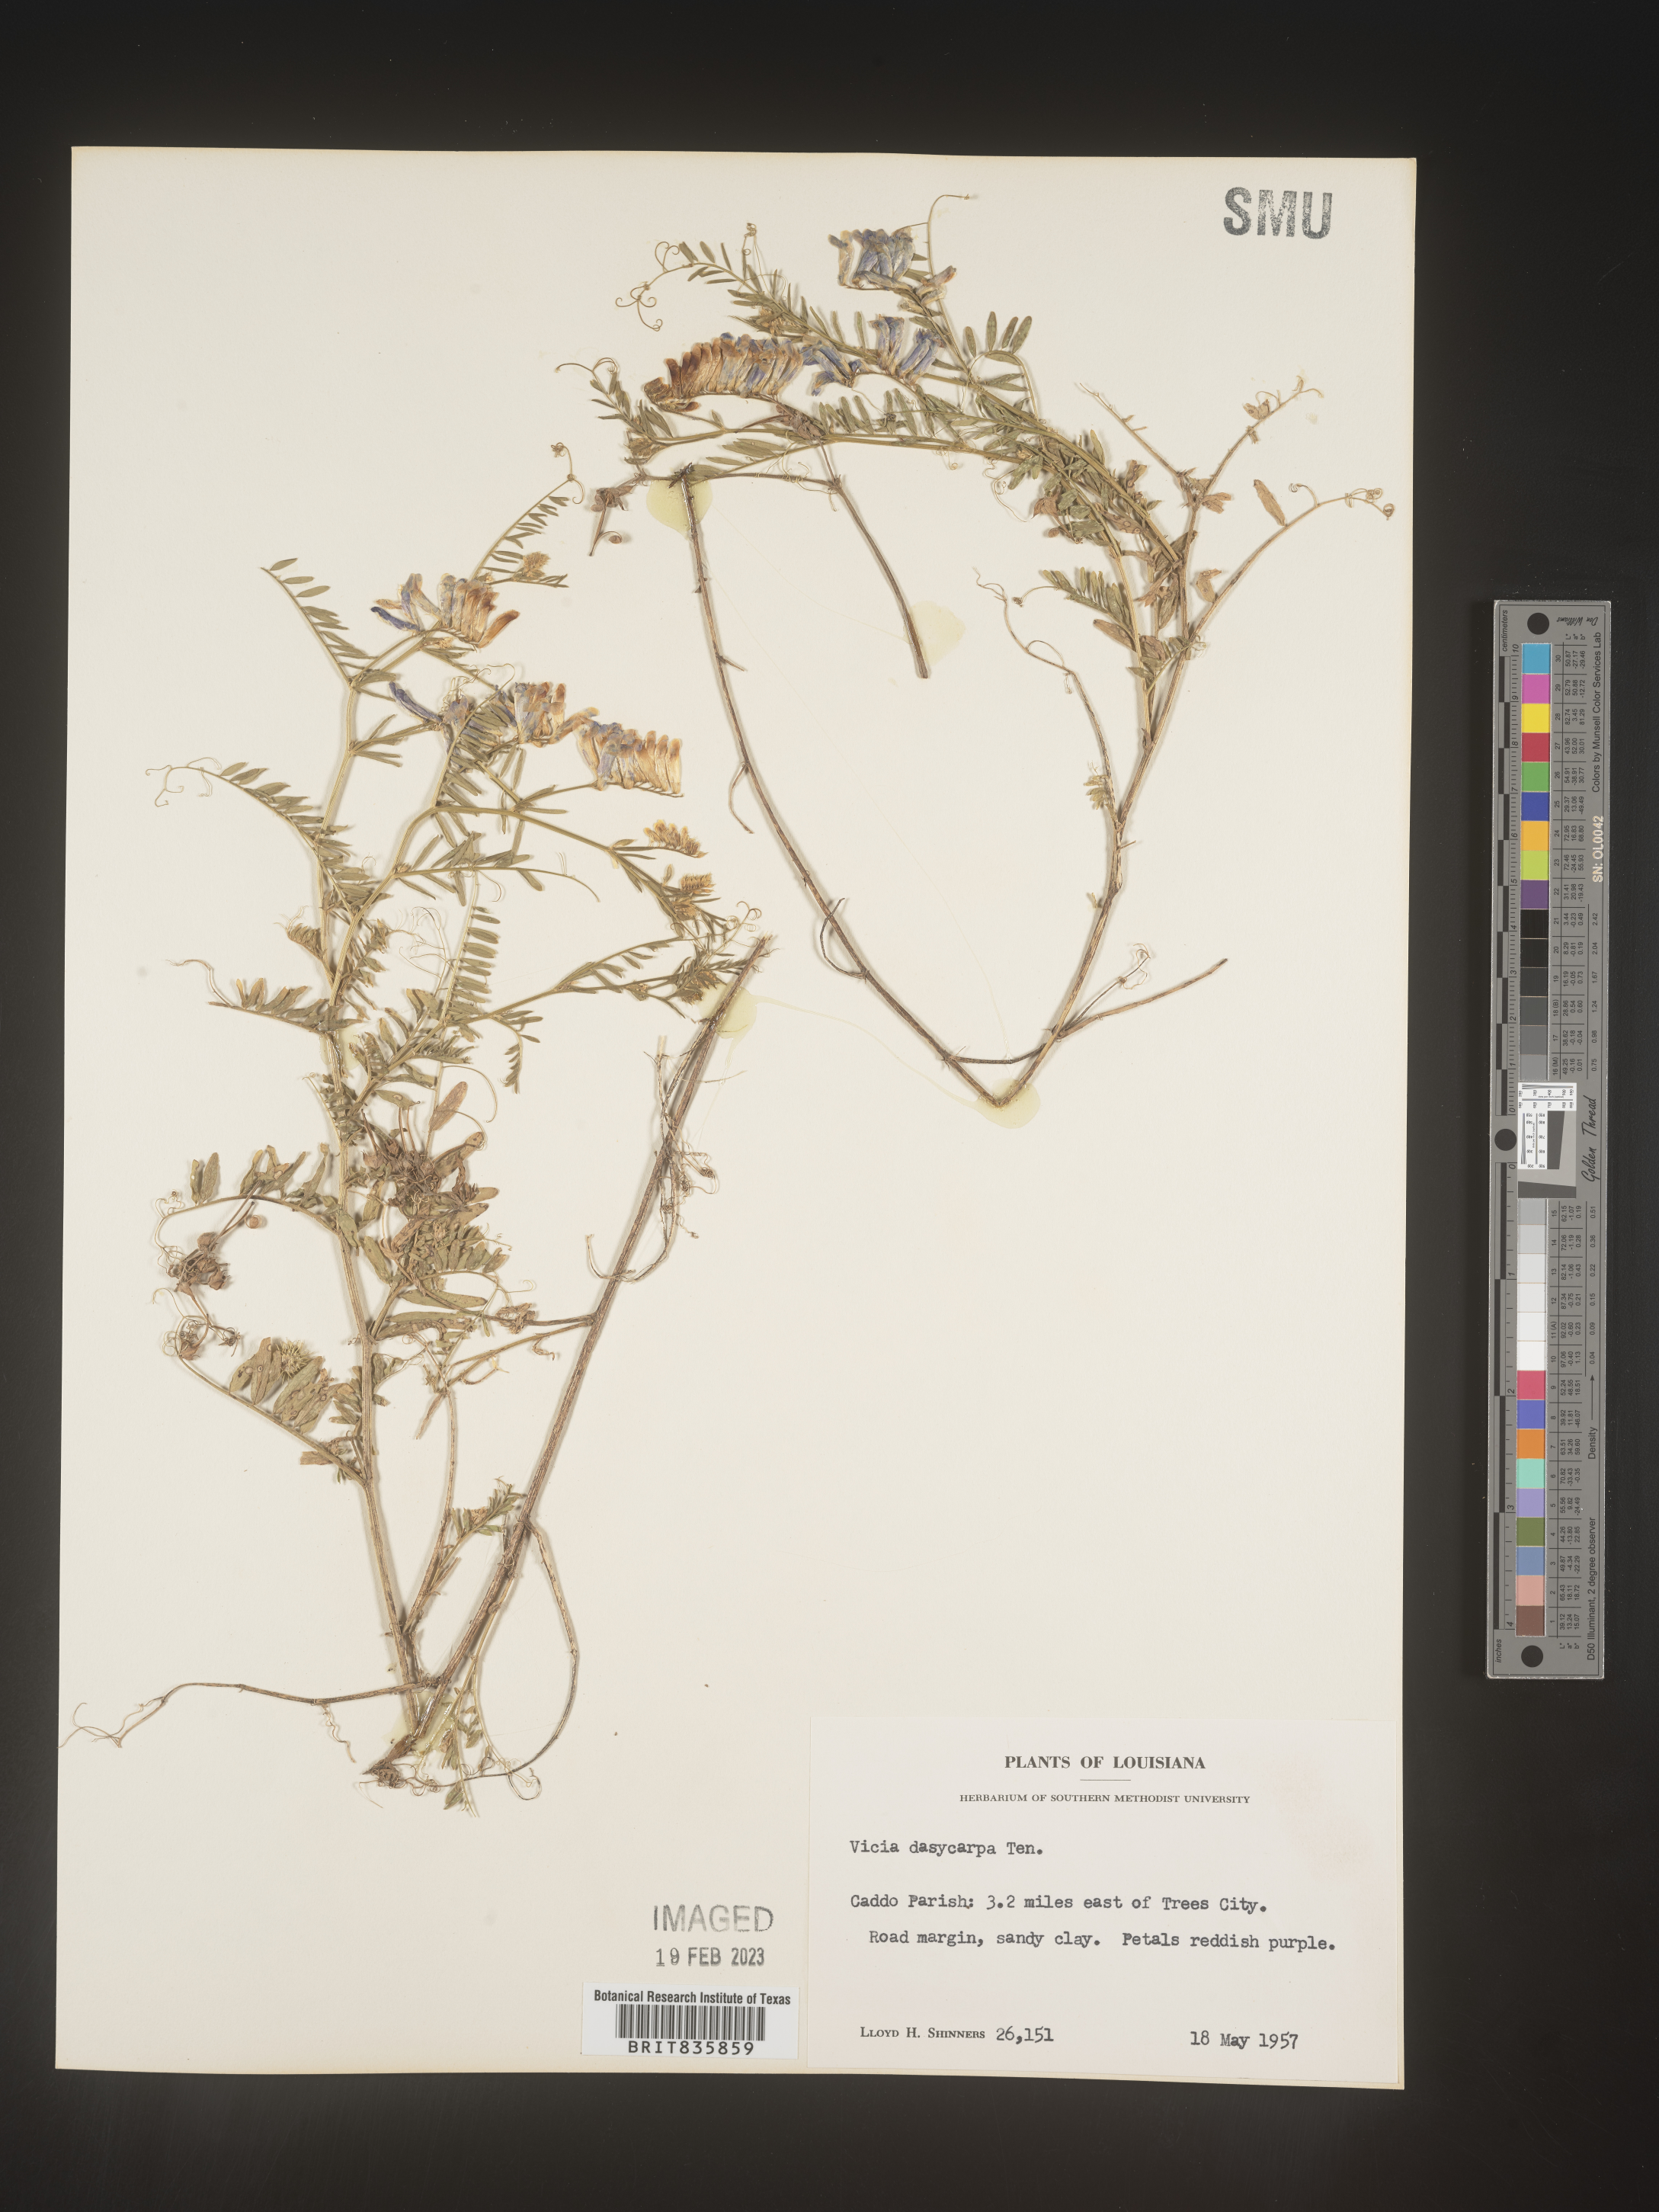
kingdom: Plantae
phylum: Tracheophyta
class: Magnoliopsida
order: Fabales
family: Fabaceae
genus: Vicia
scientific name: Vicia villosa
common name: Fodder vetch
